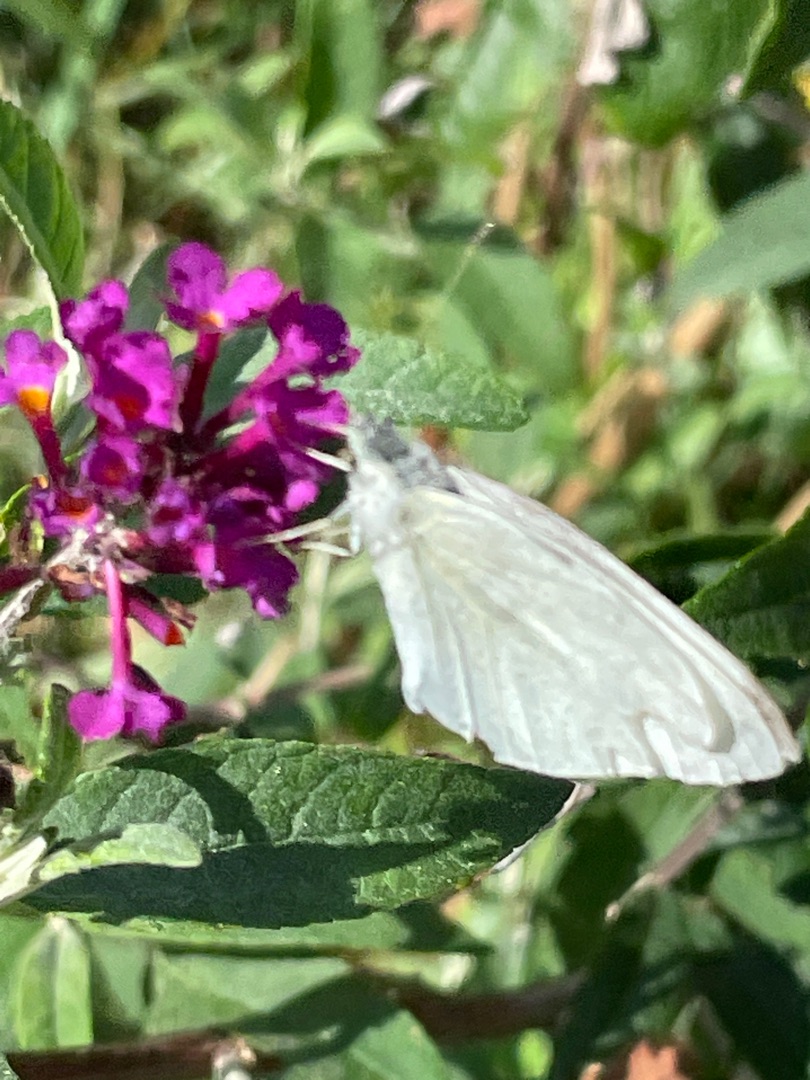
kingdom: Animalia
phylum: Arthropoda
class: Insecta
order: Lepidoptera
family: Pieridae
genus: Pieris
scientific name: Pieris rapae
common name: Lille kålsommerfugl
